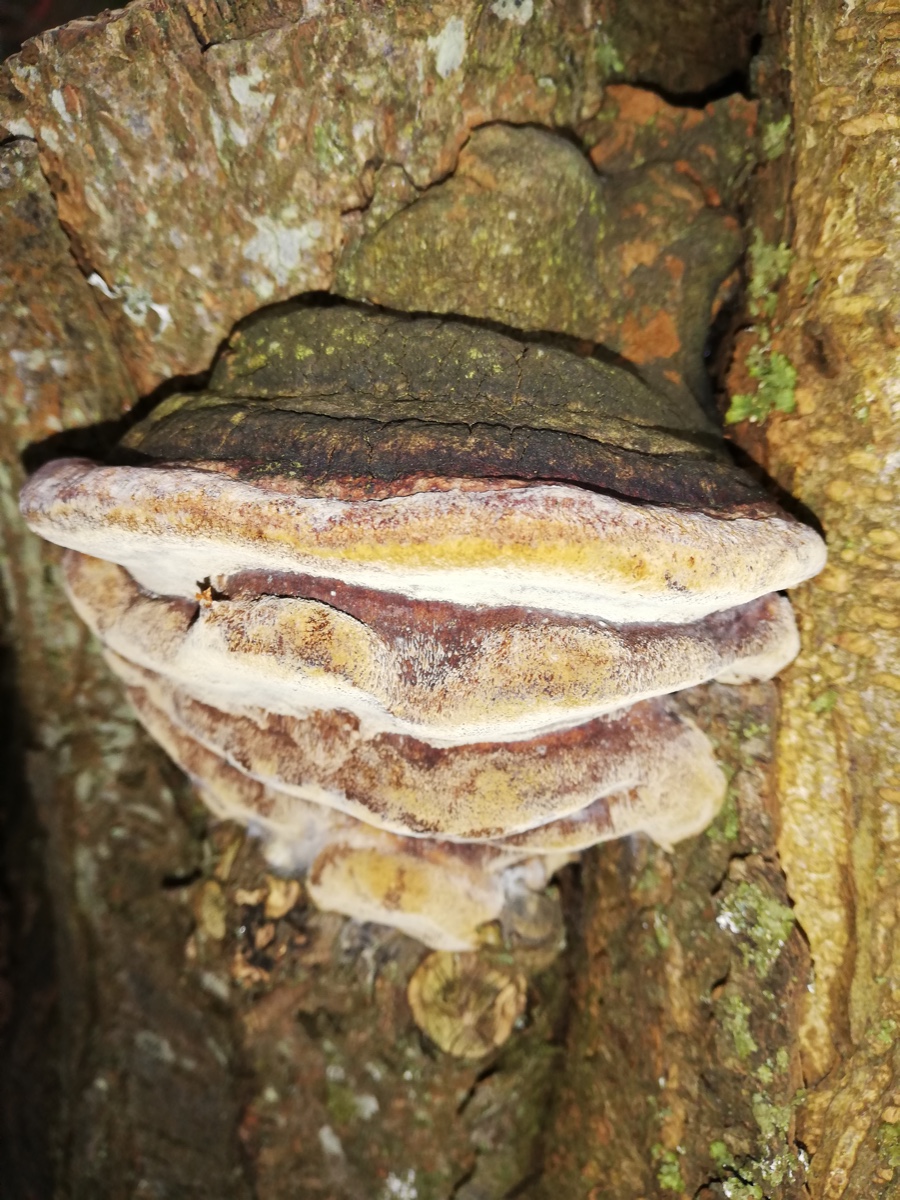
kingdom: Fungi
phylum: Basidiomycota
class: Agaricomycetes
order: Hymenochaetales
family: Hymenochaetaceae
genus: Phellinus
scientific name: Phellinus pomaceus
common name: blomme-ildporesvamp
